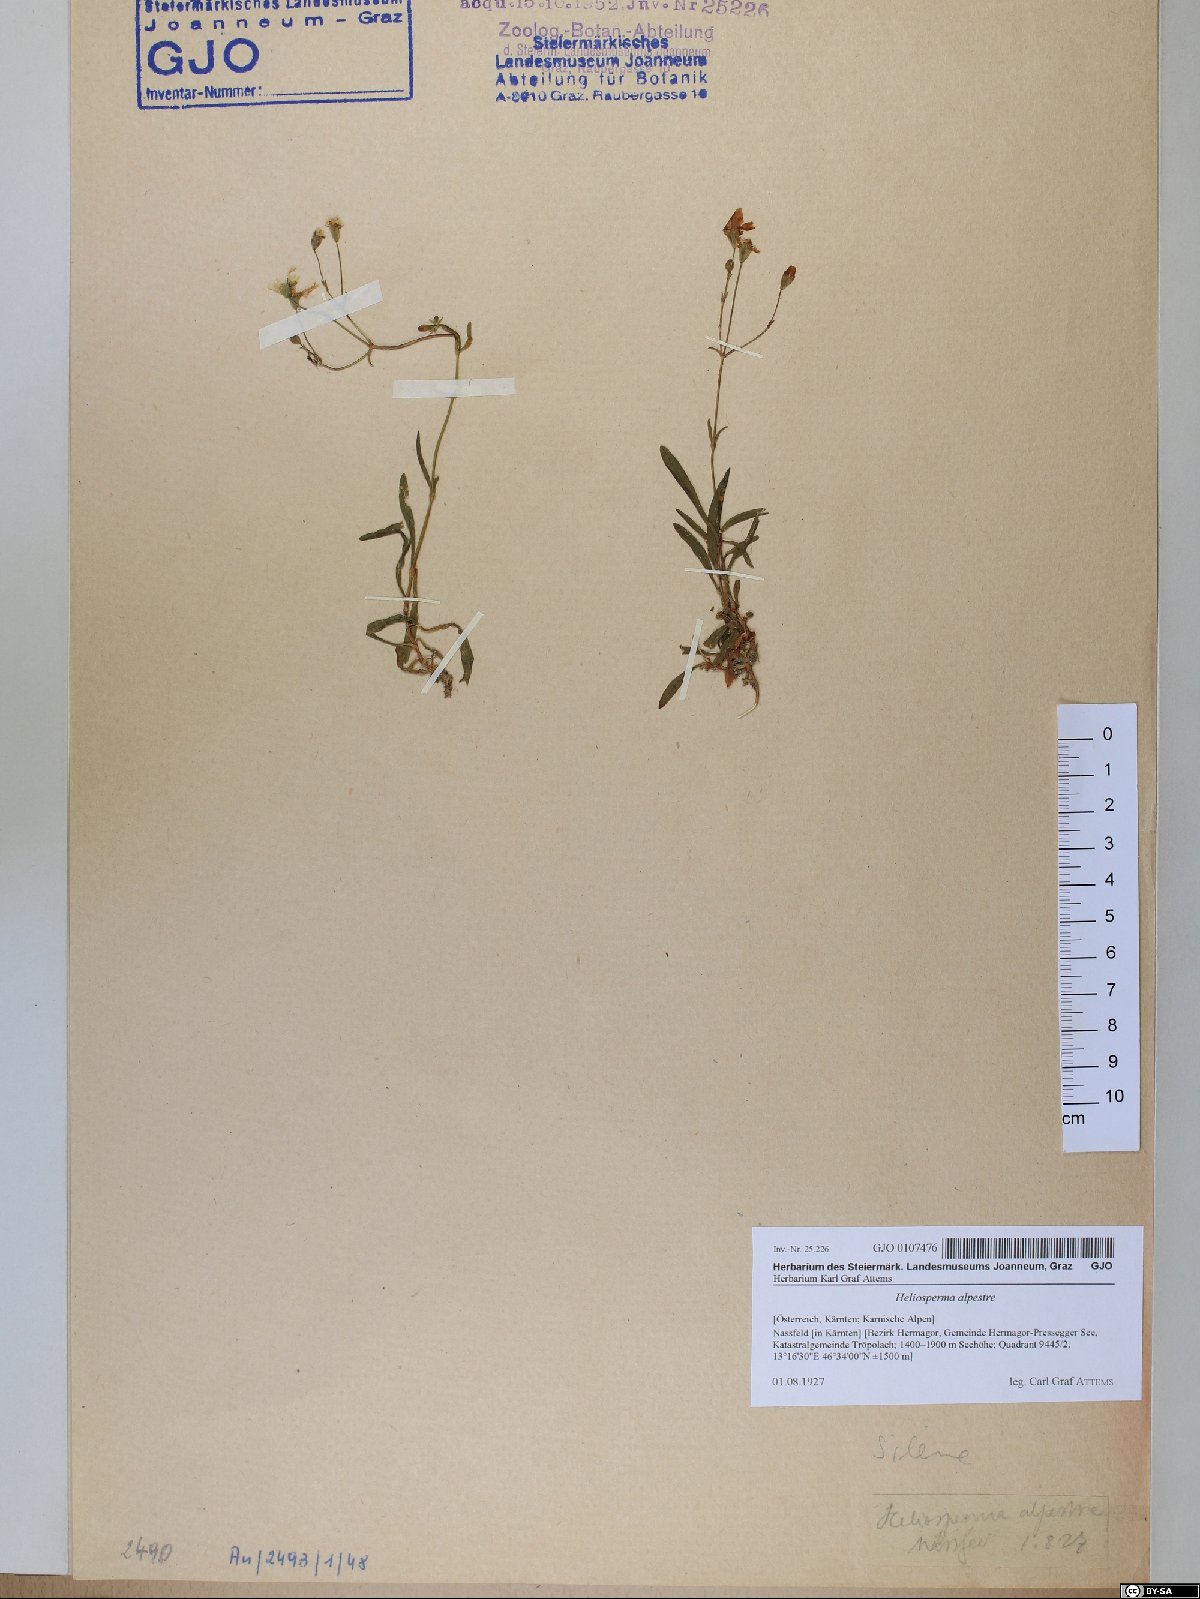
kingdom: Plantae
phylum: Tracheophyta
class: Magnoliopsida
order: Caryophyllales
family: Caryophyllaceae
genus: Heliosperma
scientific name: Heliosperma alpestre
